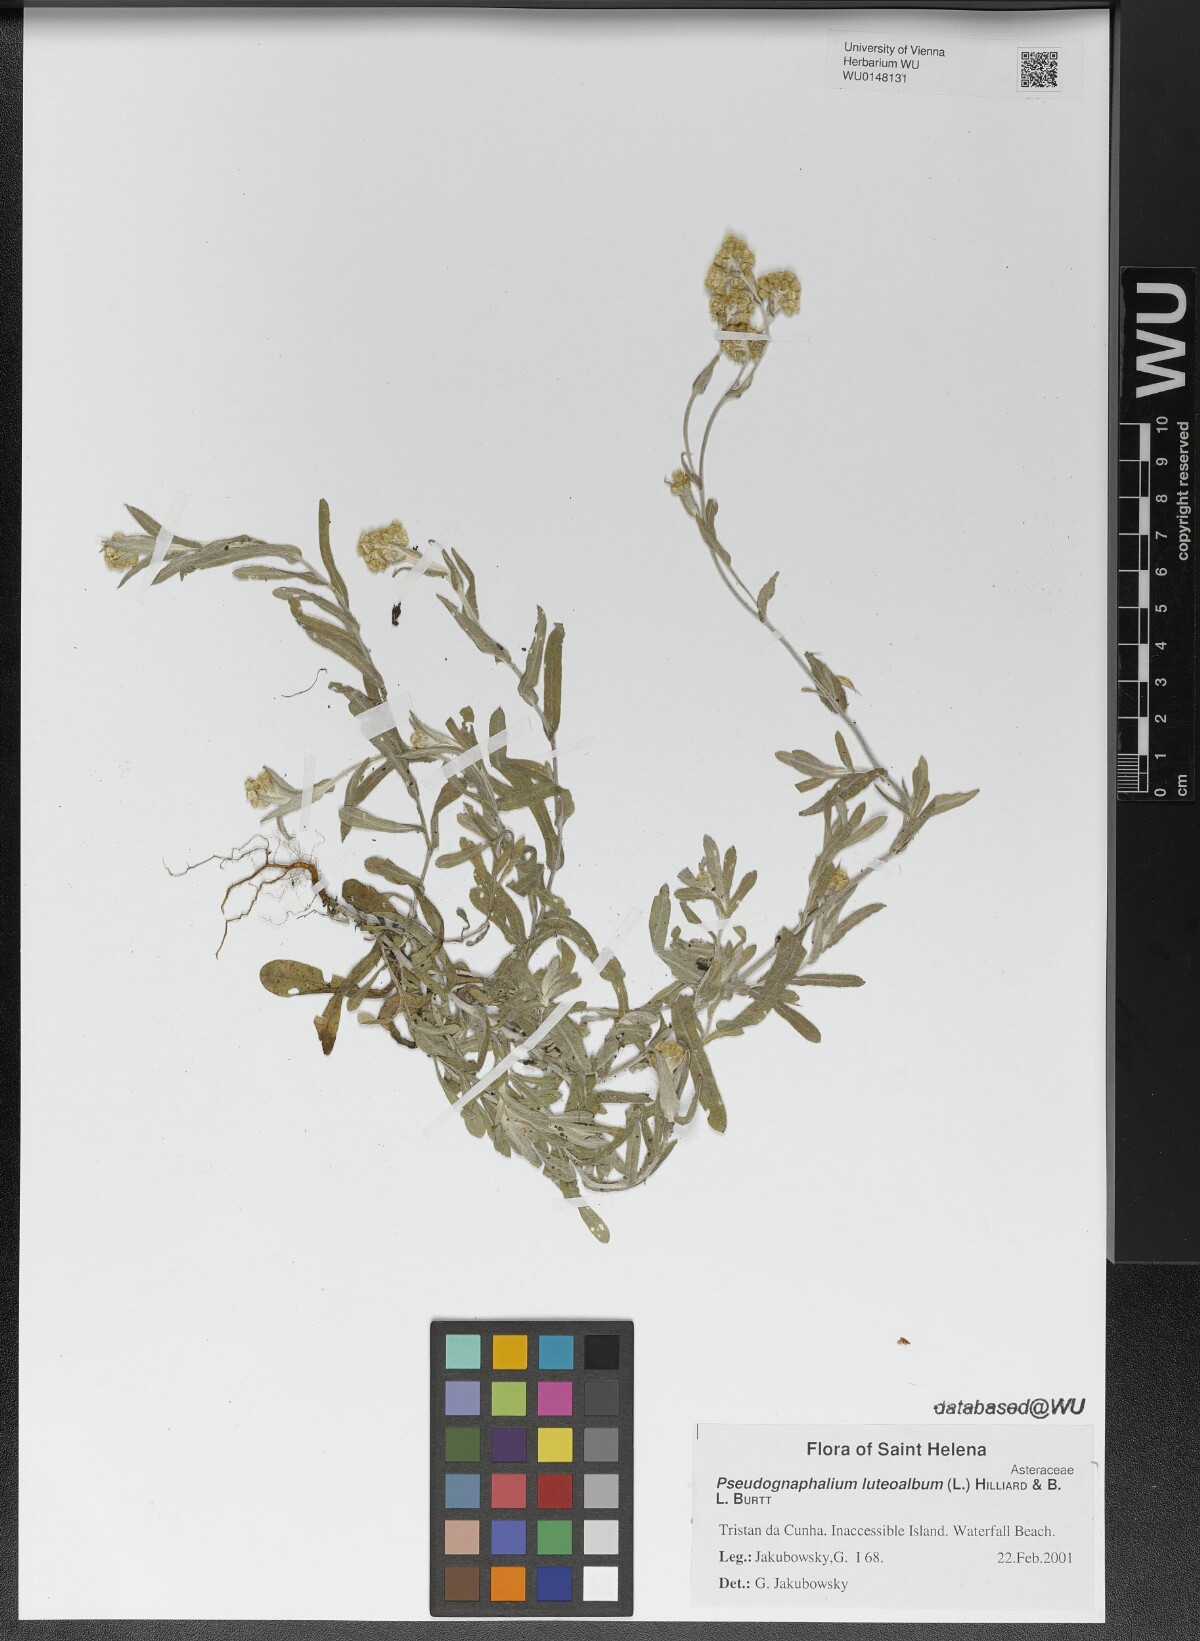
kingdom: Plantae
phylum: Tracheophyta
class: Magnoliopsida
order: Asterales
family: Asteraceae
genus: Helichrysum
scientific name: Helichrysum luteoalbum
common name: Daisy
